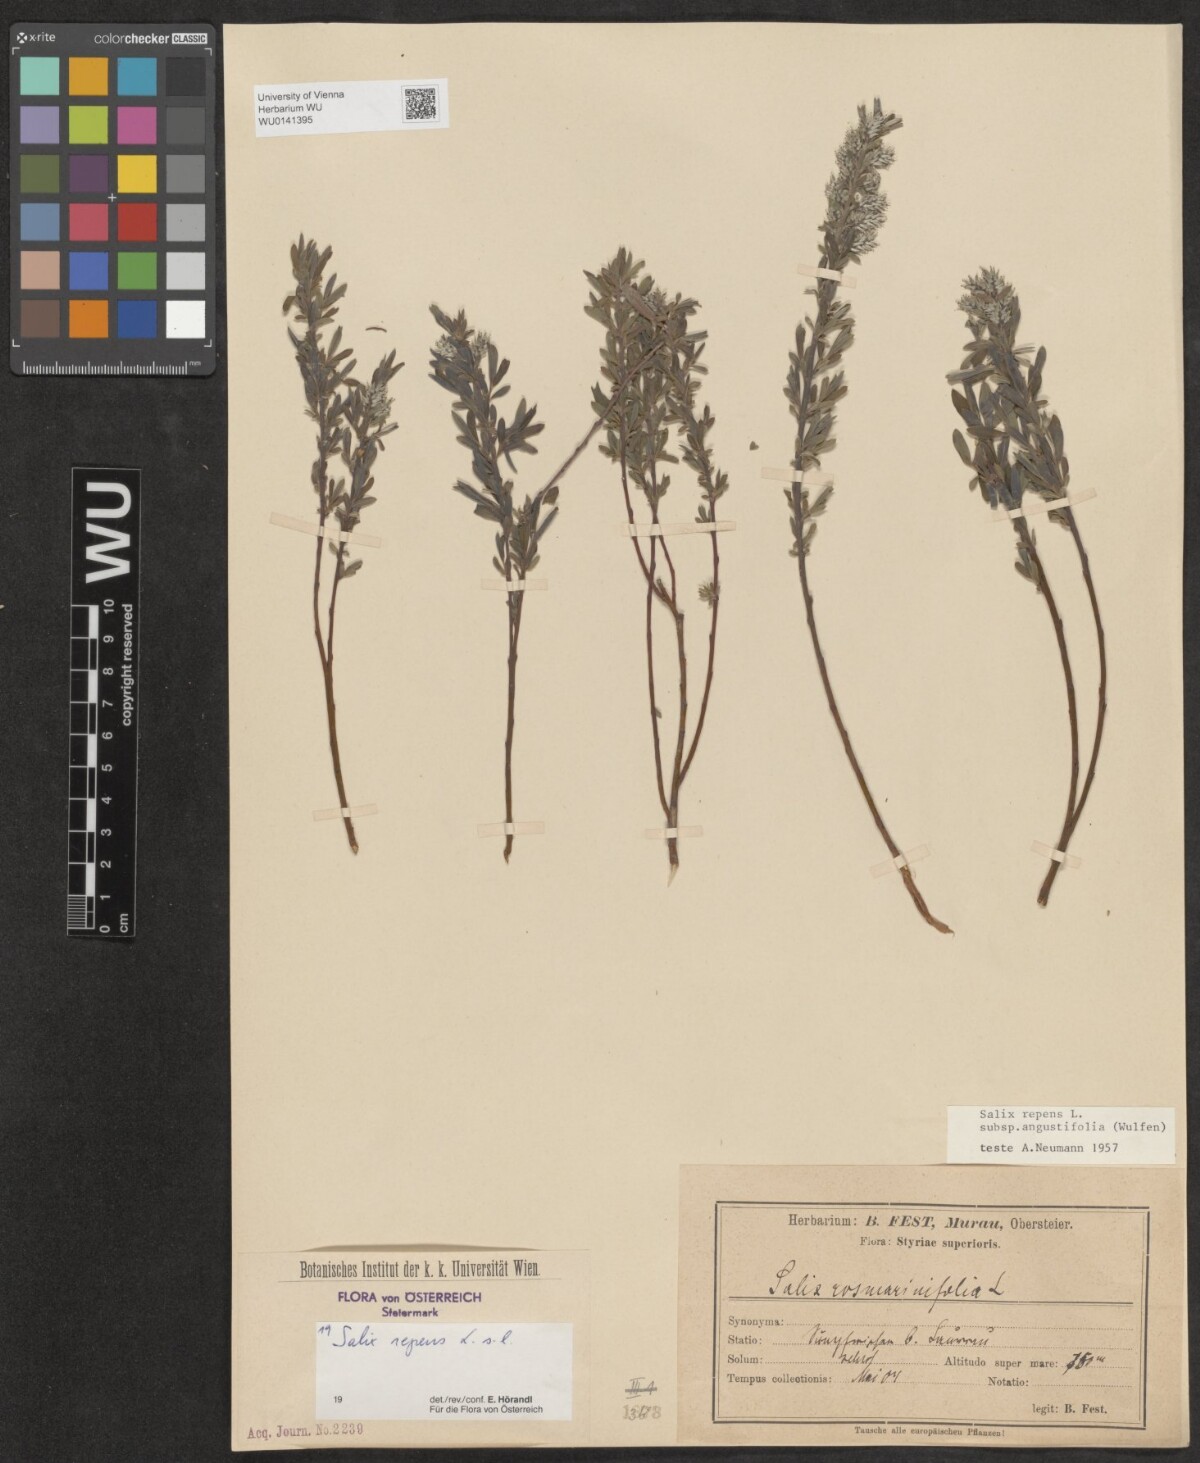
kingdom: Plantae
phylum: Tracheophyta
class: Magnoliopsida
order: Malpighiales
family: Salicaceae
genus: Salix
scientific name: Salix repens
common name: Creeping willow
